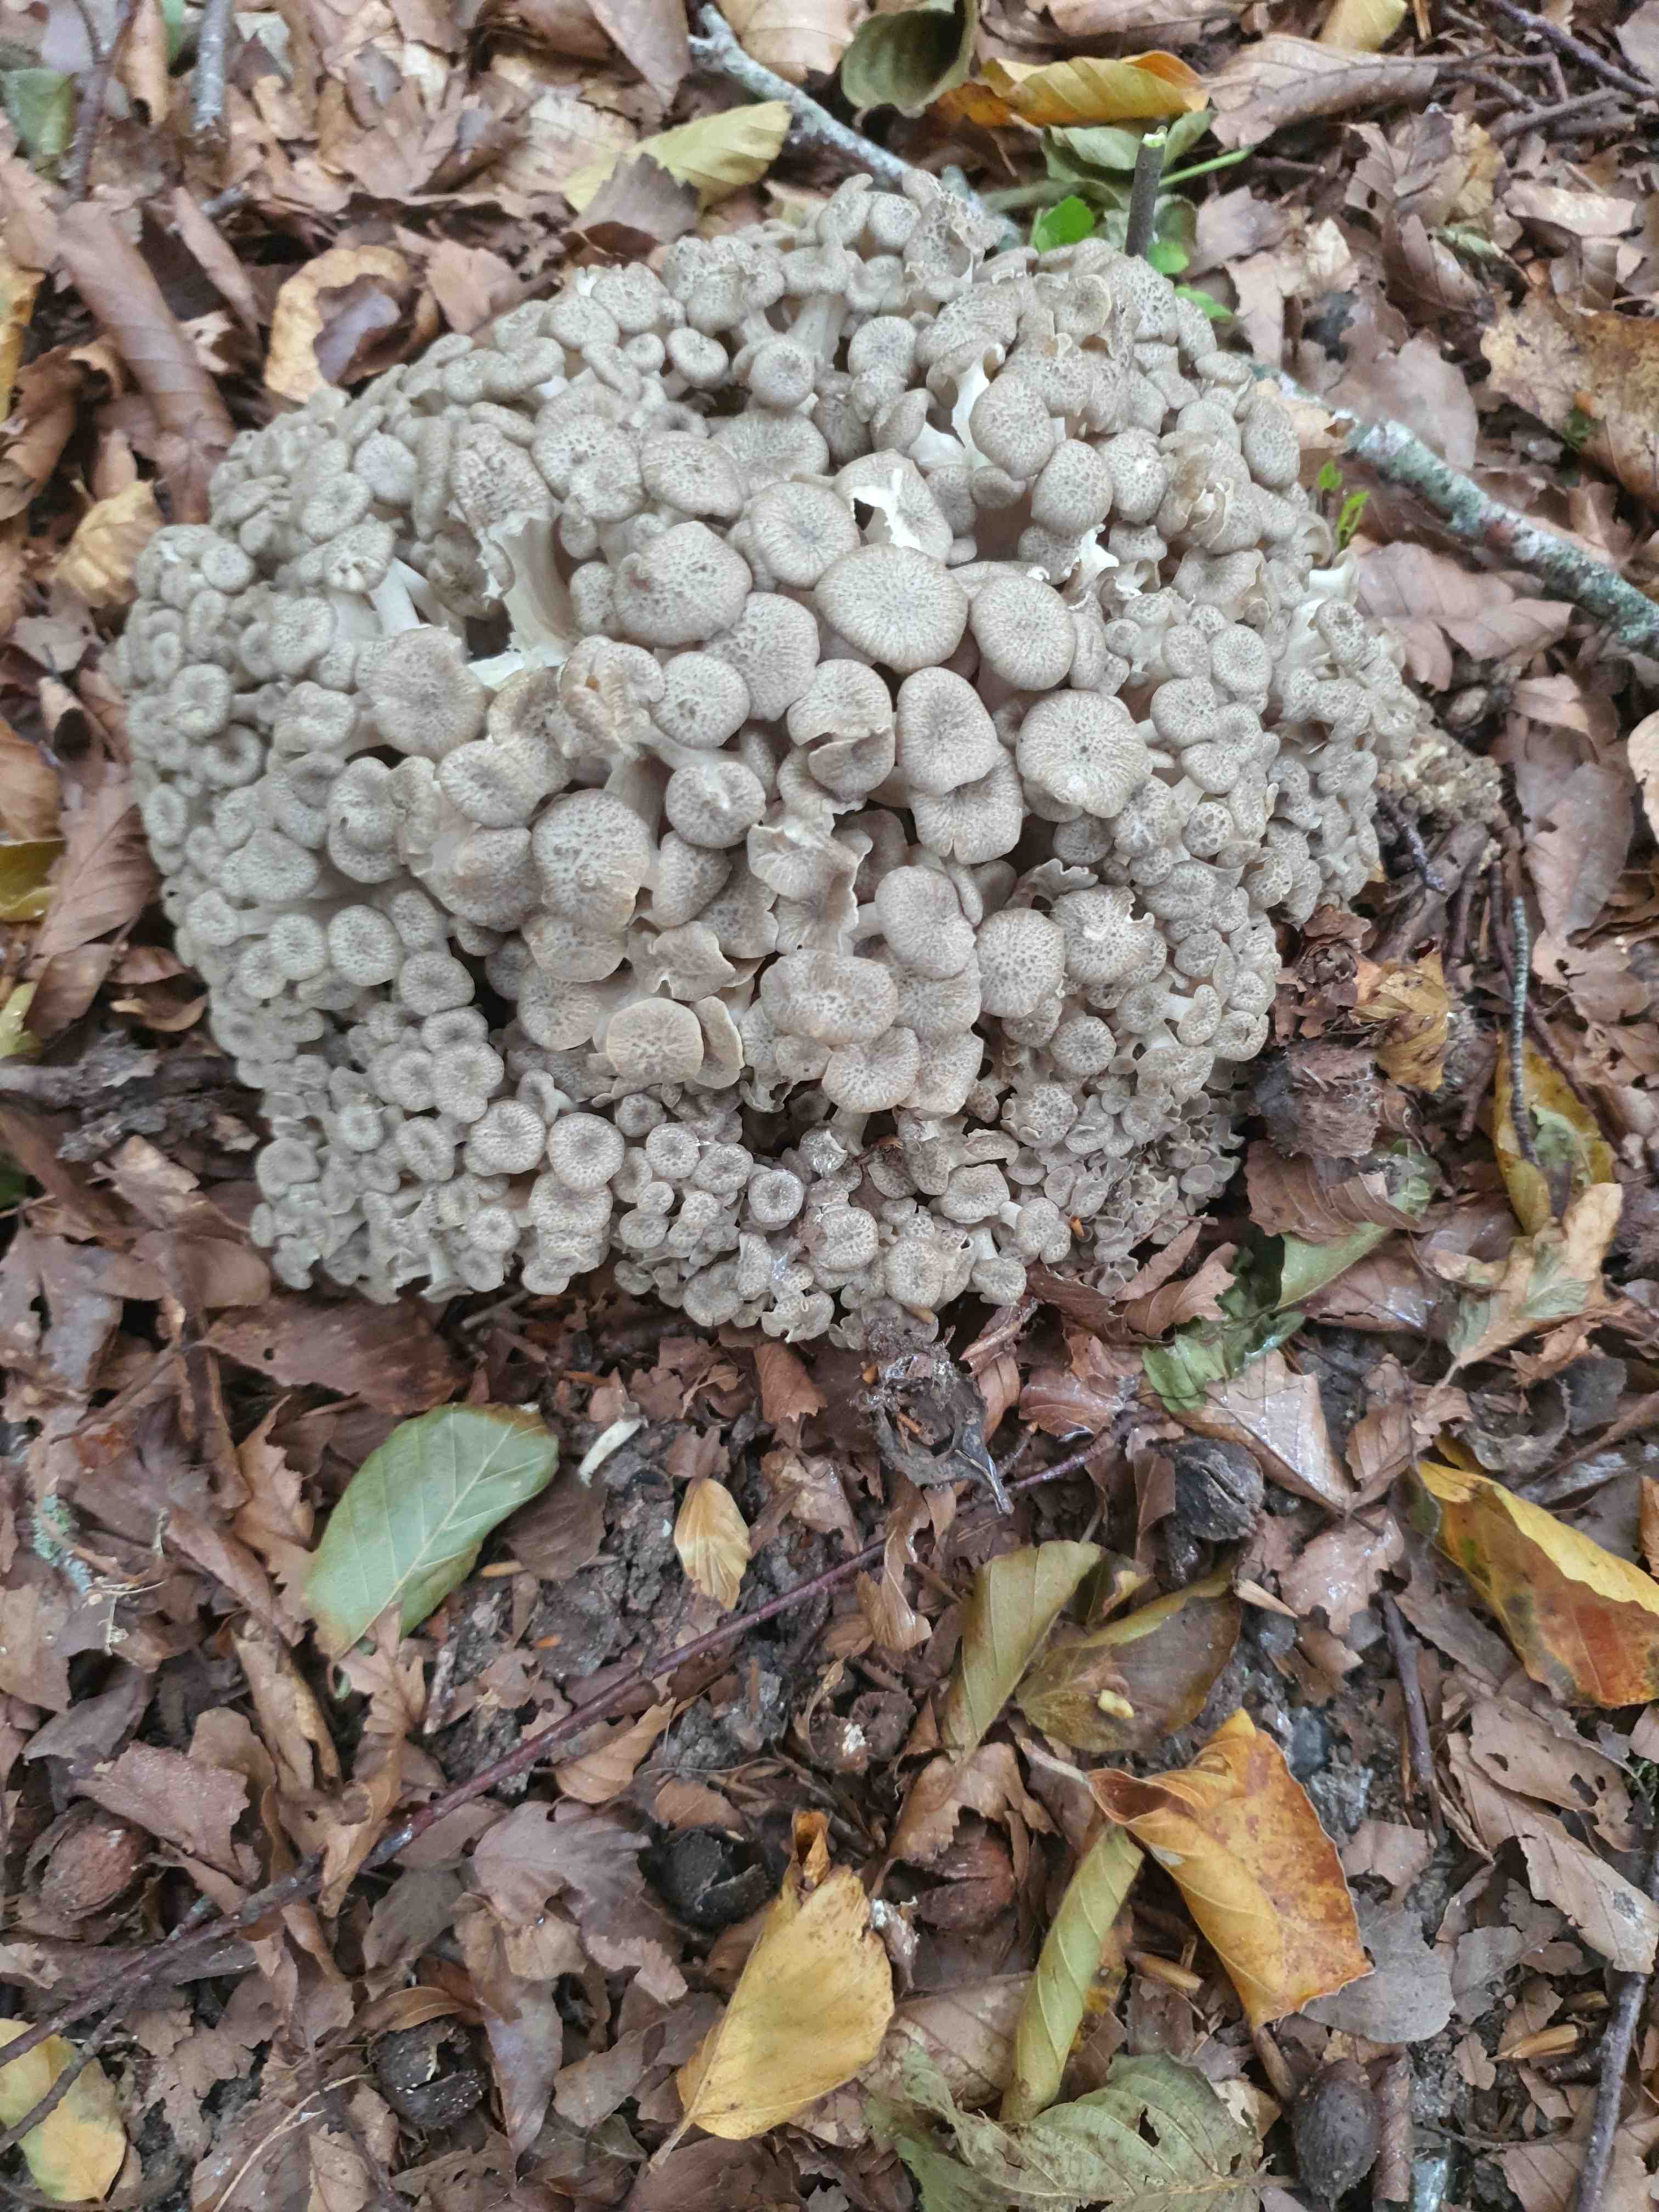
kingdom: Fungi
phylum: Basidiomycota
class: Agaricomycetes
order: Polyporales
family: Polyporaceae
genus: Polyporus
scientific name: Polyporus umbellatus
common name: skærmformet stilkporesvamp
